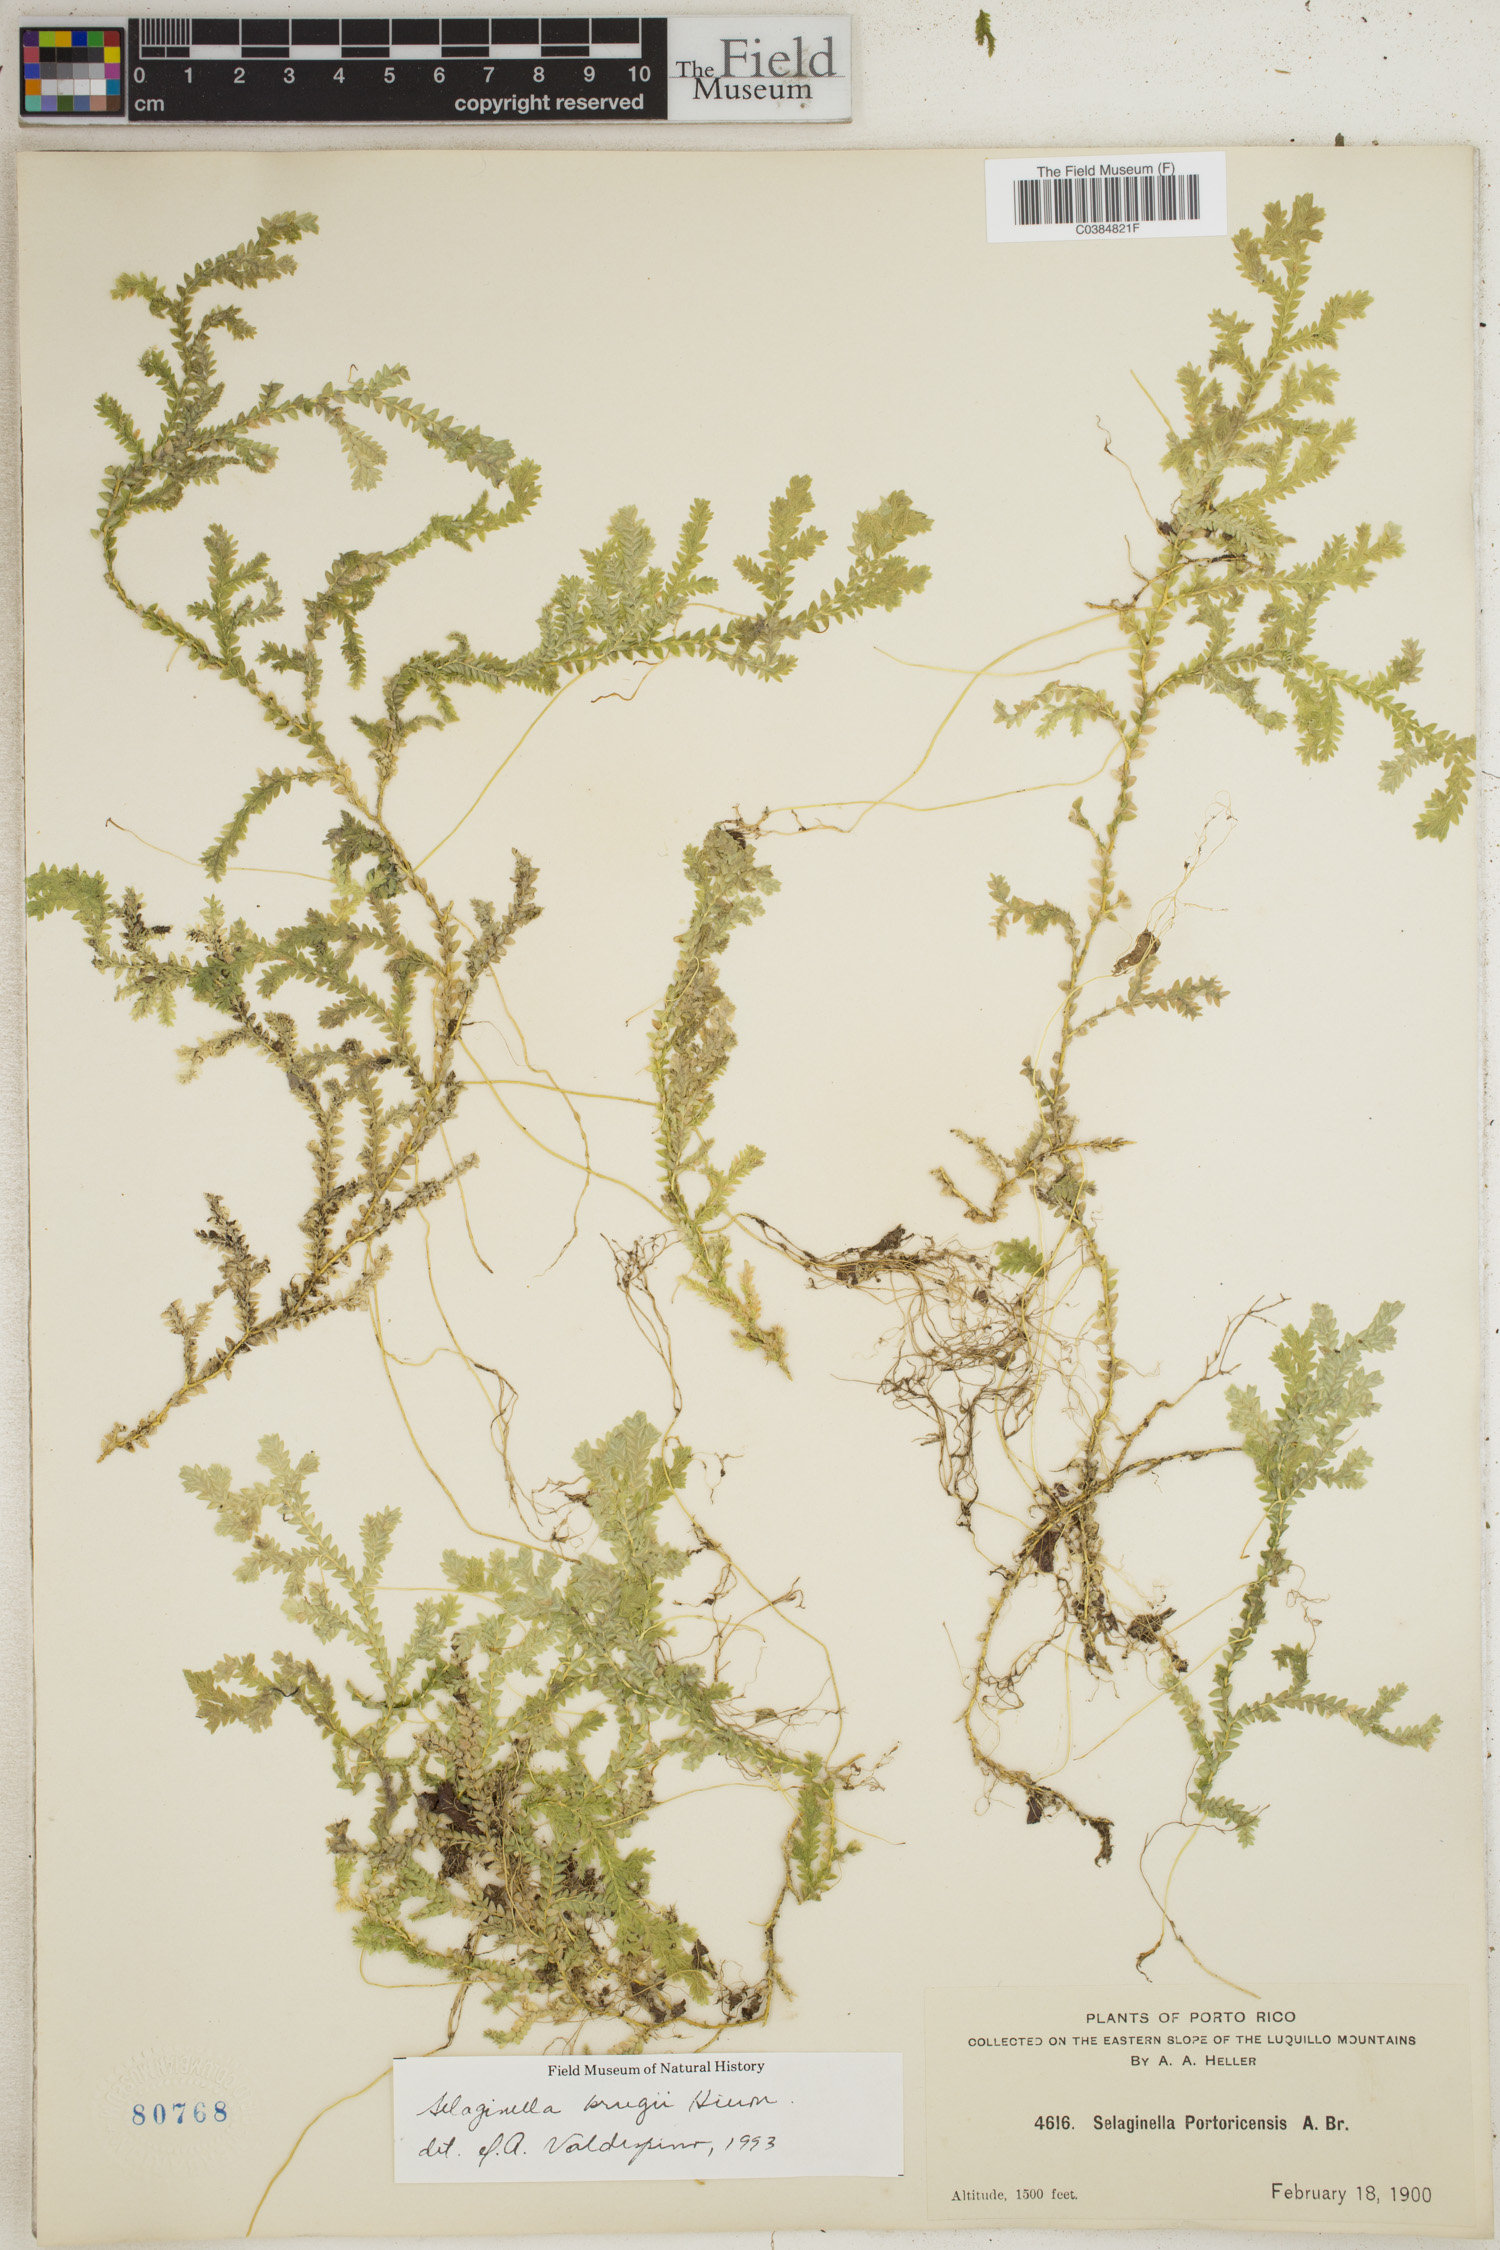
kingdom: Plantae
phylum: Tracheophyta
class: Lycopodiopsida
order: Selaginellales
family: Selaginellaceae
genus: Selaginella
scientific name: Selaginella krugii
